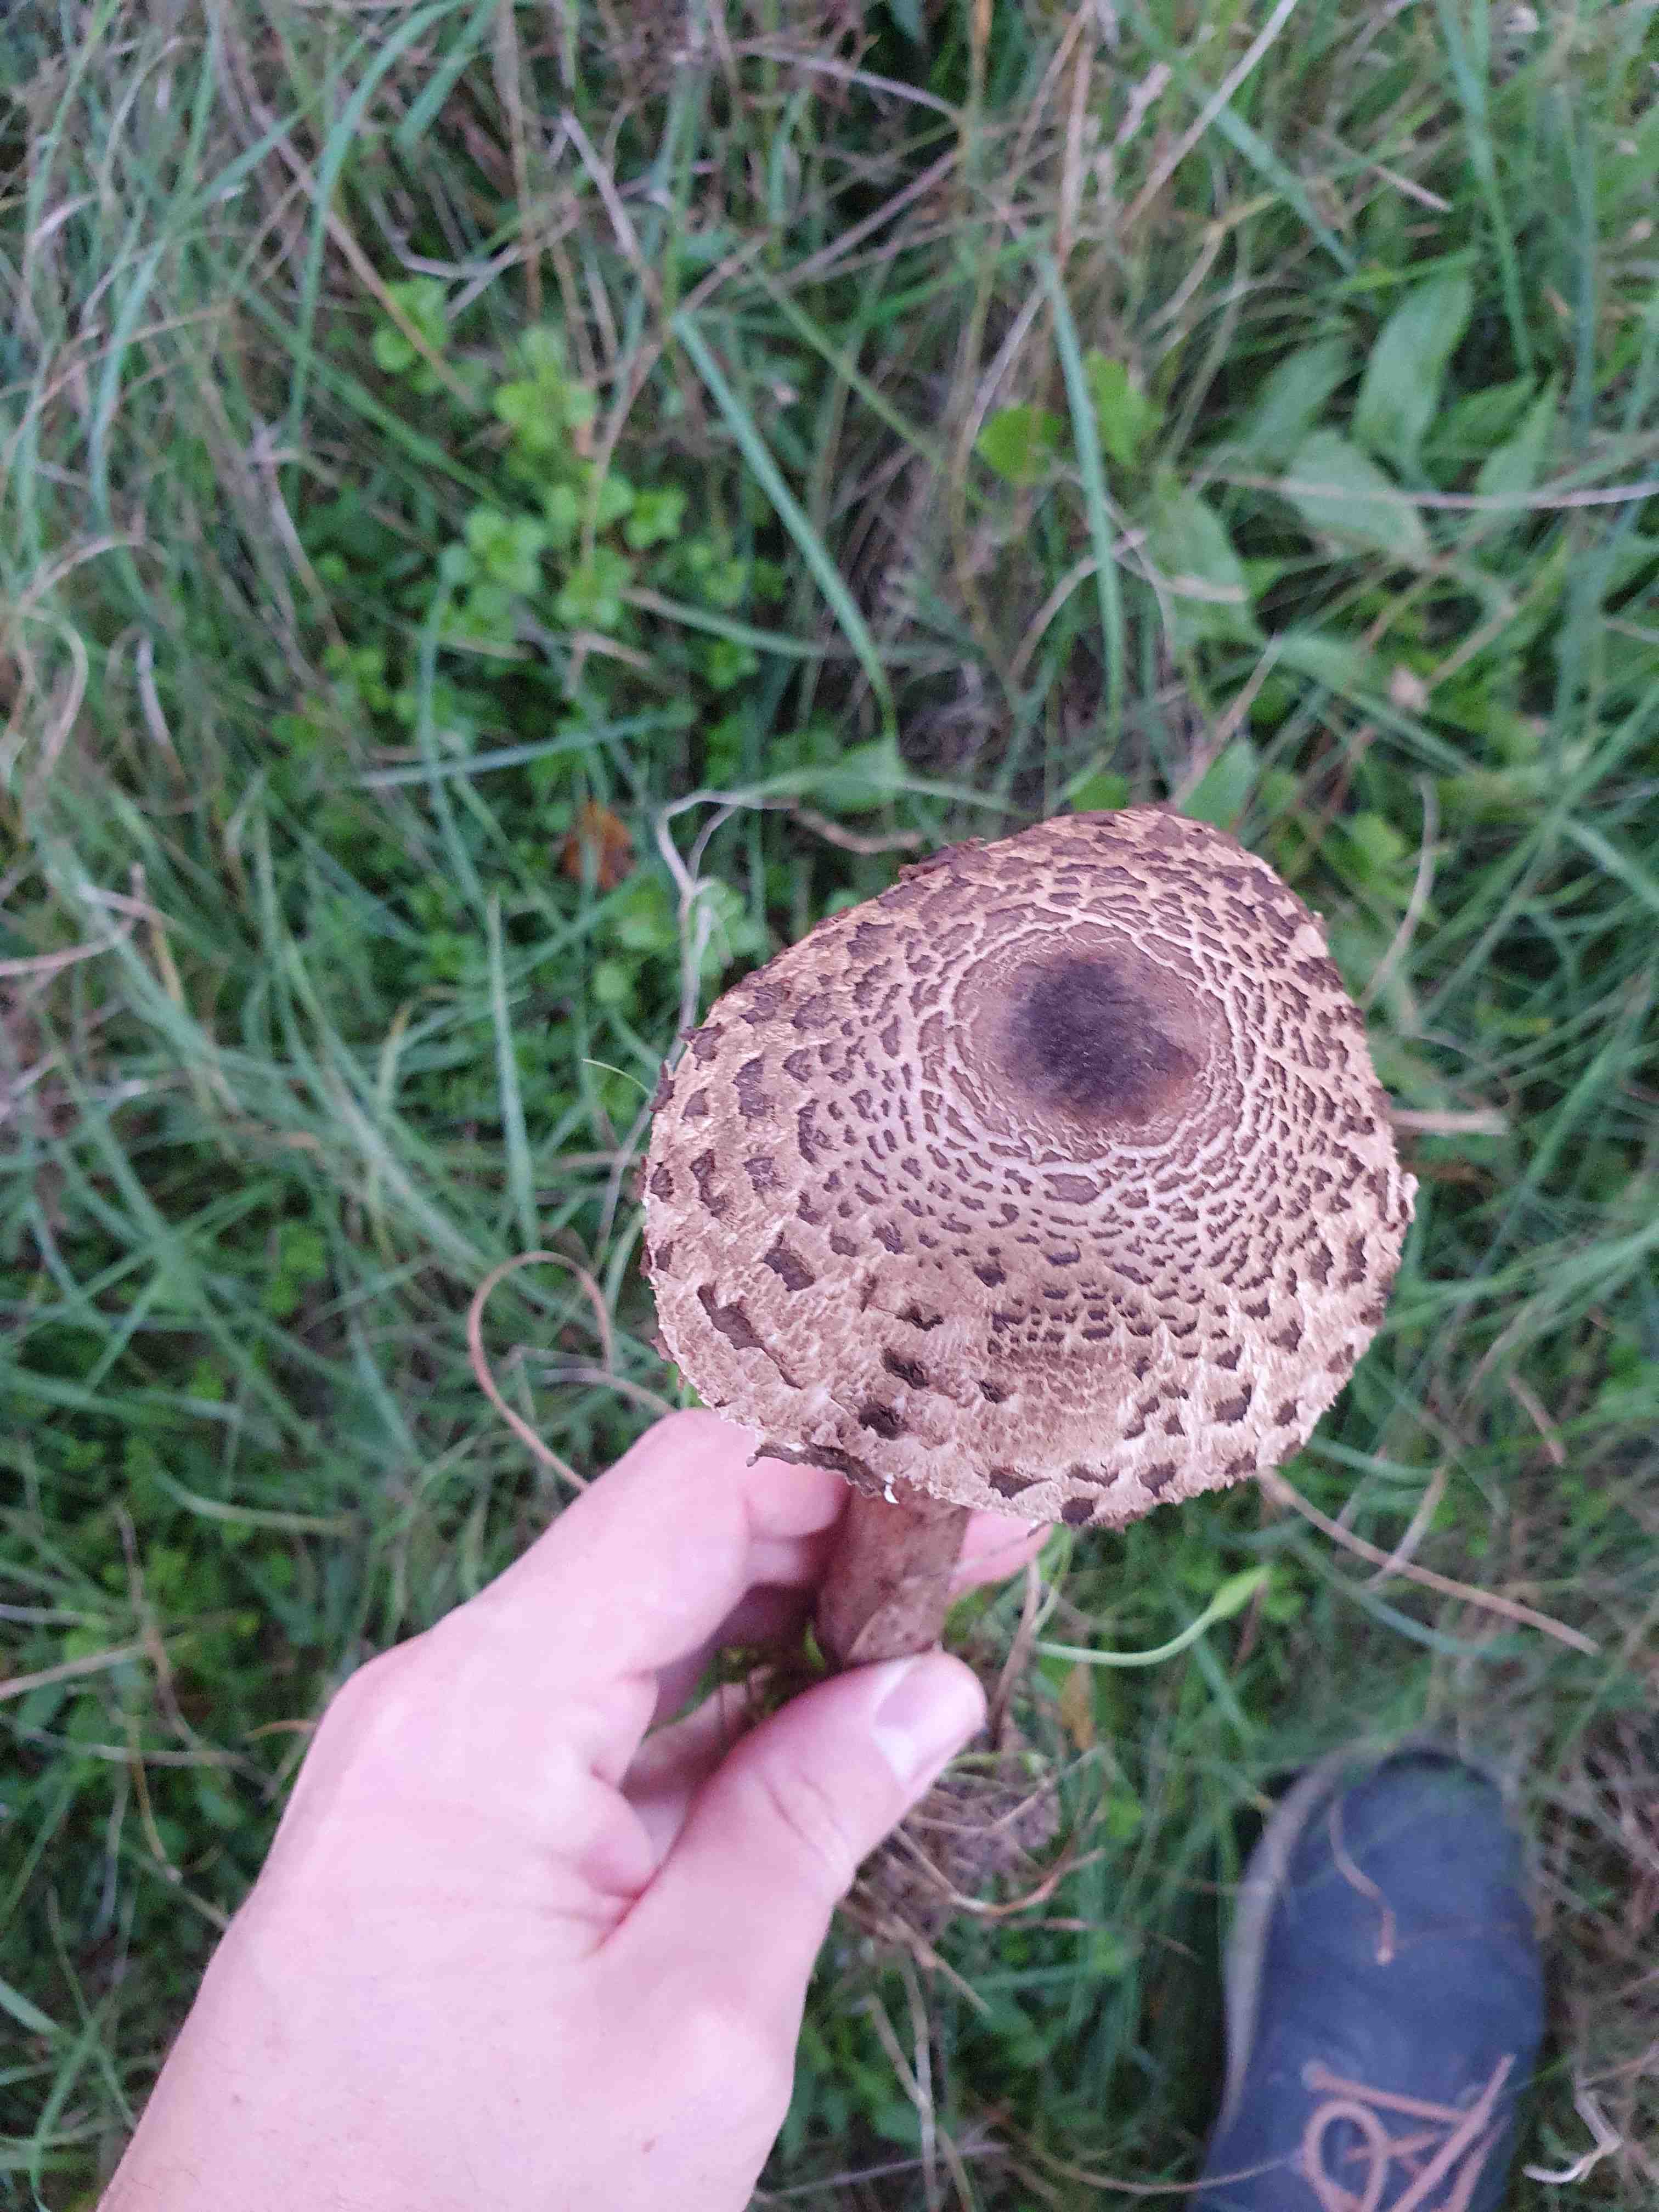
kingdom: Fungi
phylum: Basidiomycota
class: Agaricomycetes
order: Agaricales
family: Agaricaceae
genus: Macrolepiota
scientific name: Macrolepiota procera
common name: stor kæmpeparasolhat
